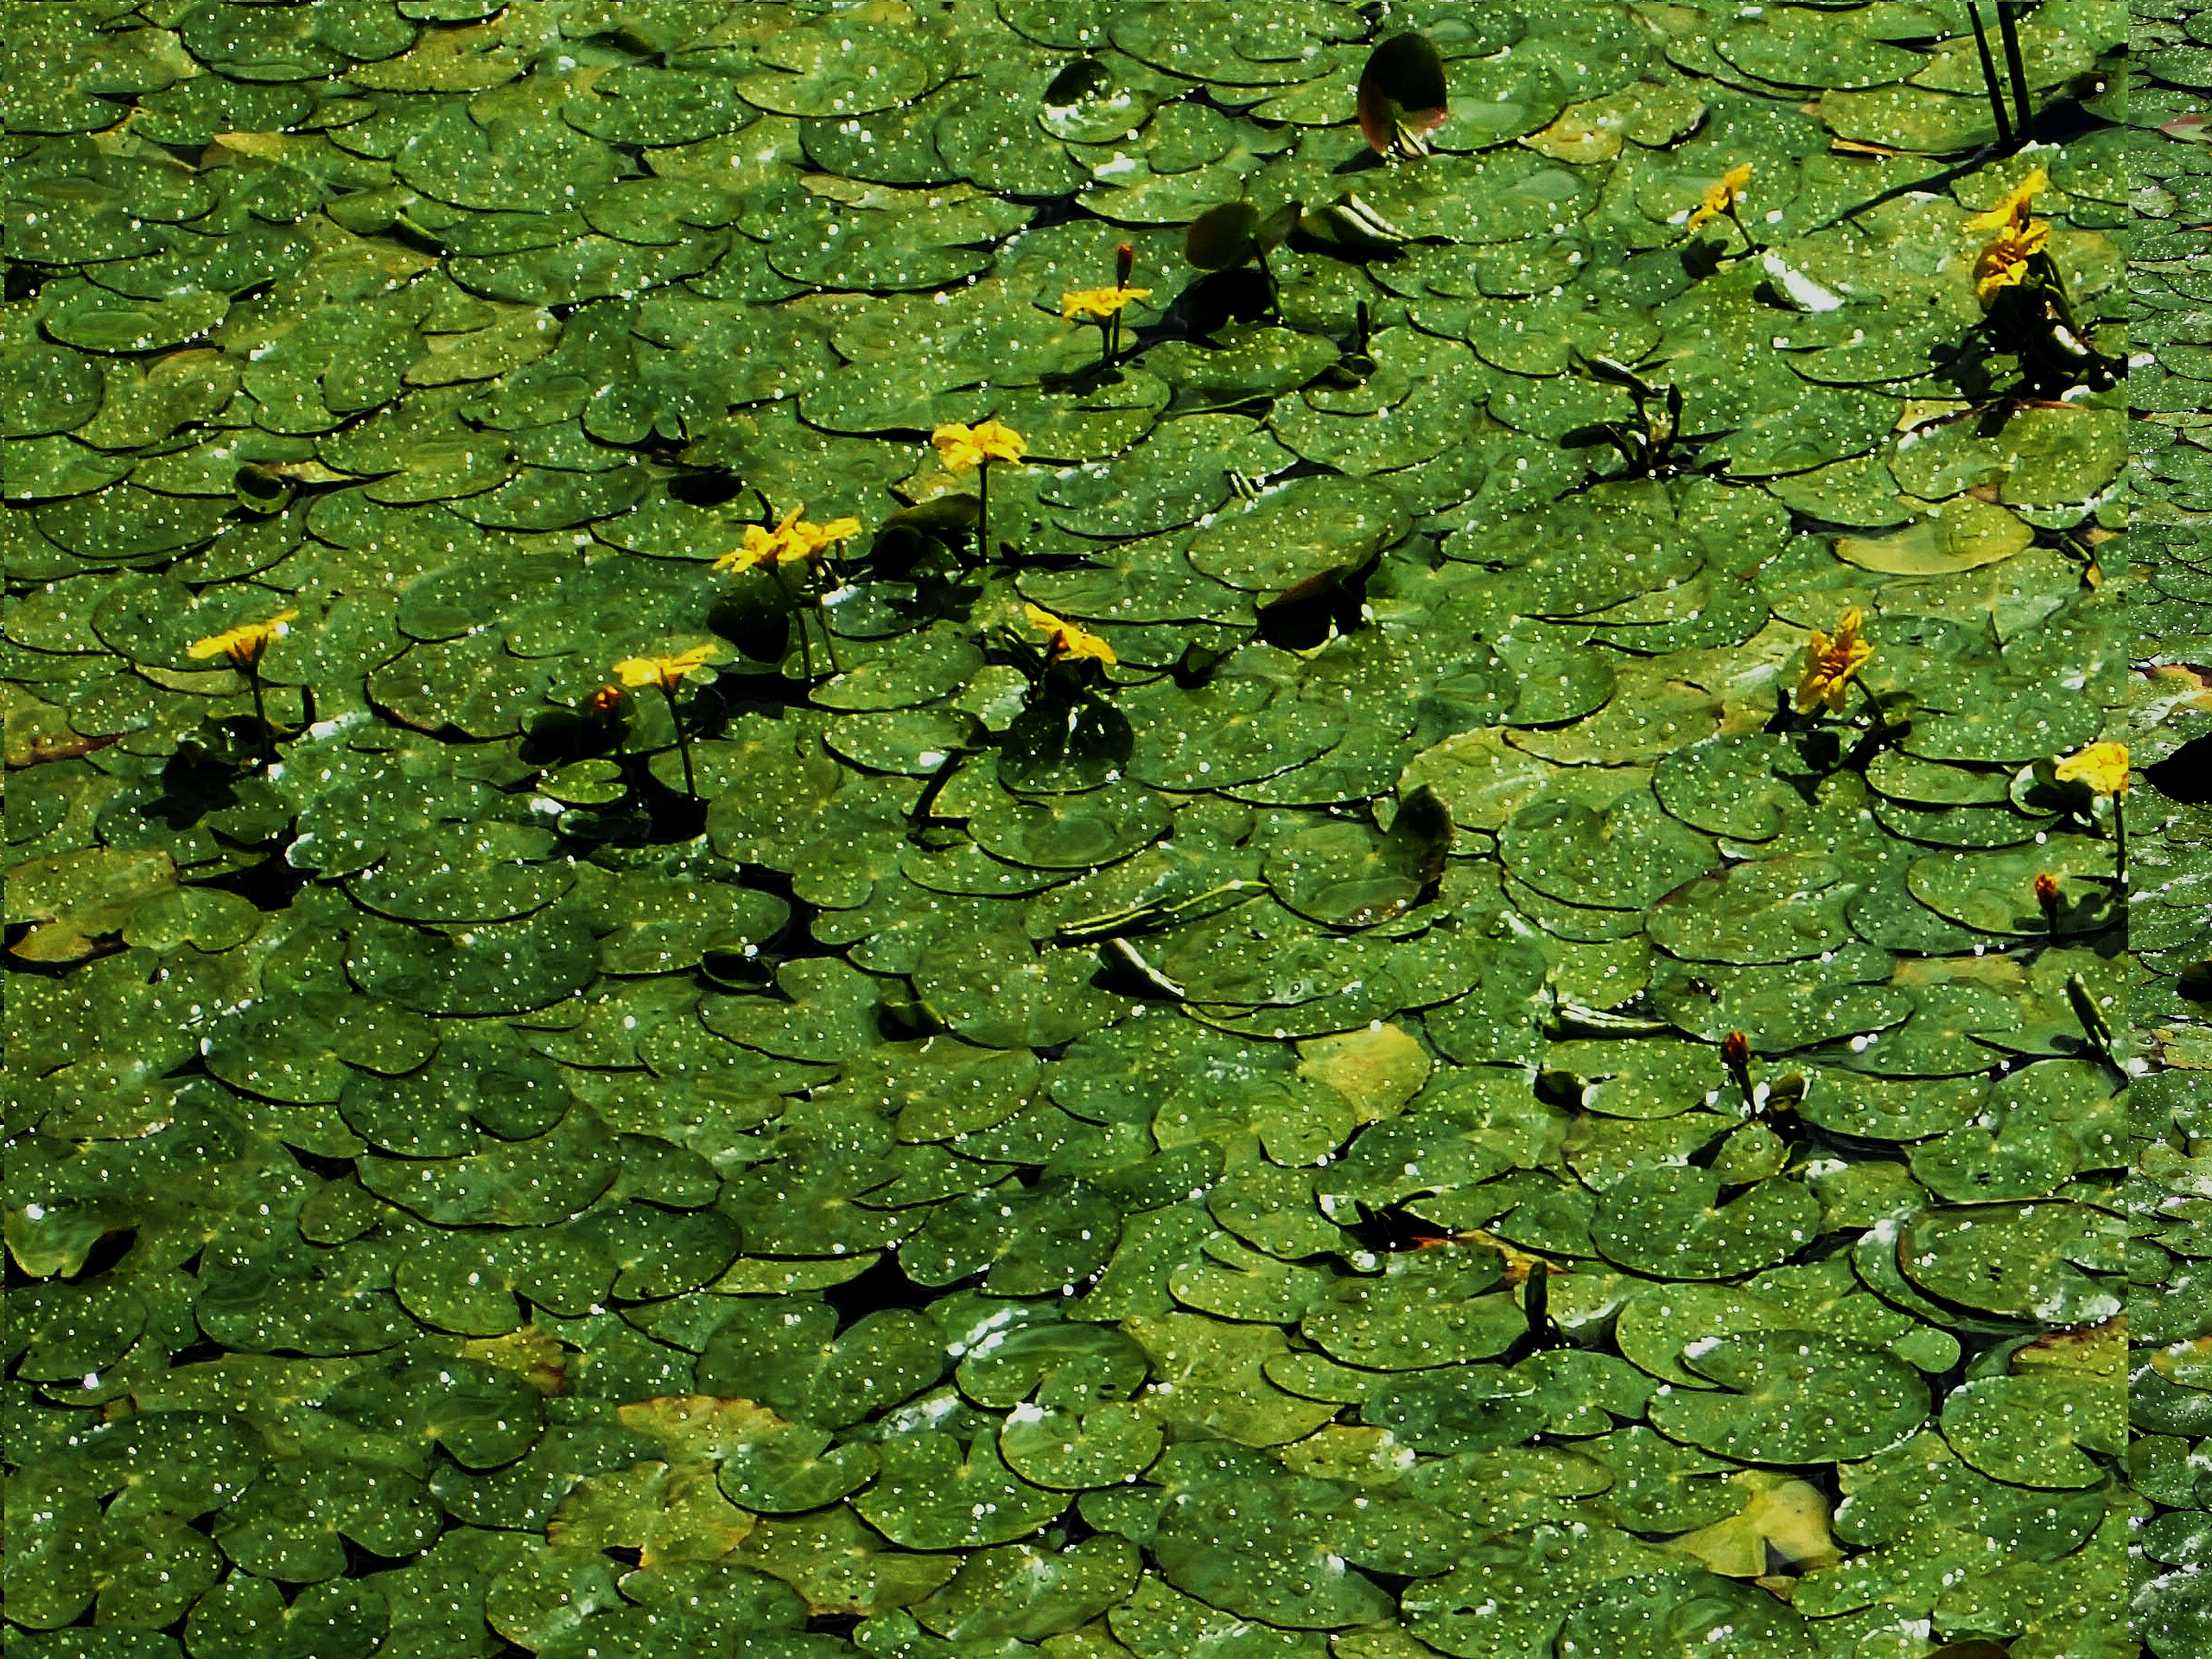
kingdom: Plantae
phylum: Tracheophyta
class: Magnoliopsida
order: Asterales
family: Menyanthaceae
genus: Nymphoides
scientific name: Nymphoides peltata
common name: Søblad
